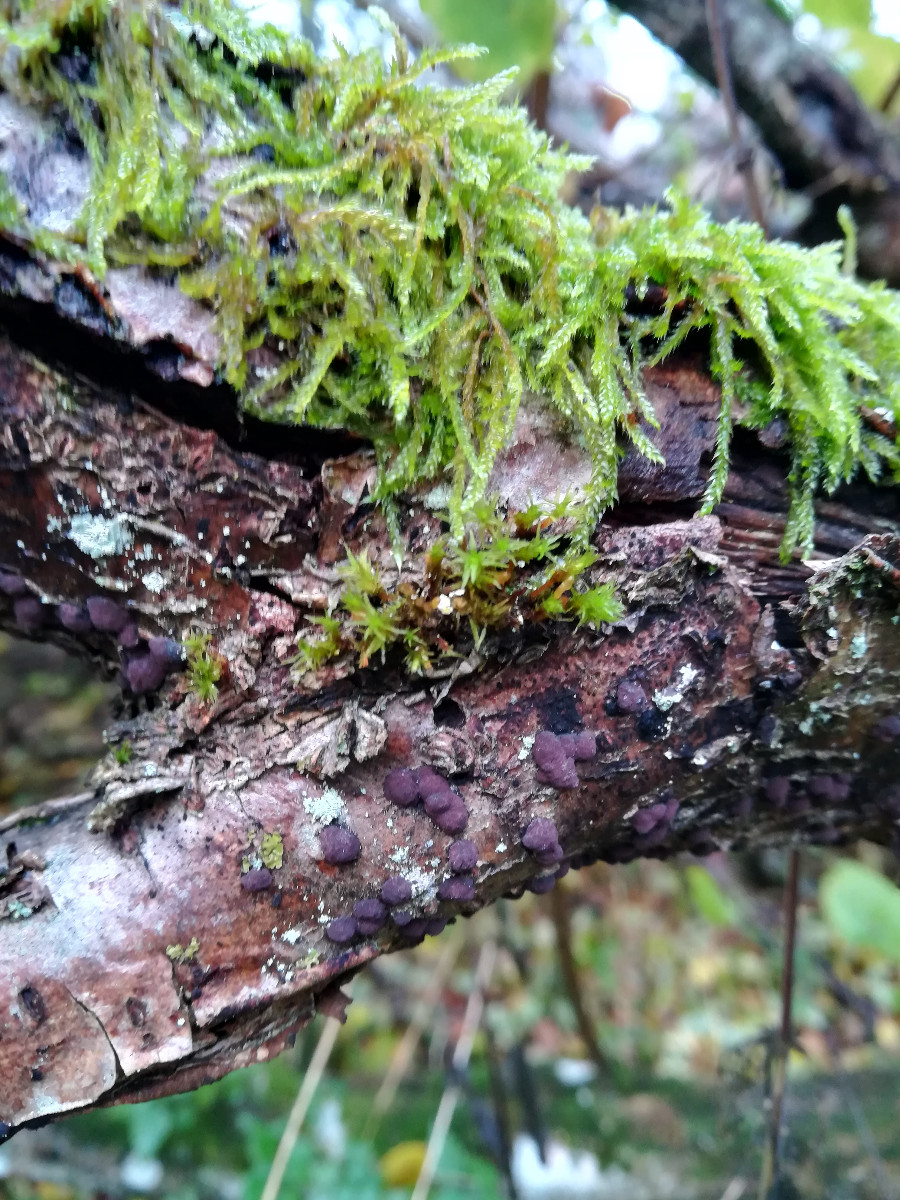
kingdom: Fungi
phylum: Ascomycota
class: Sordariomycetes
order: Xylariales
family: Hypoxylaceae
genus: Hypoxylon
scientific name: Hypoxylon fuscum
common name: kegleformet kulbær
